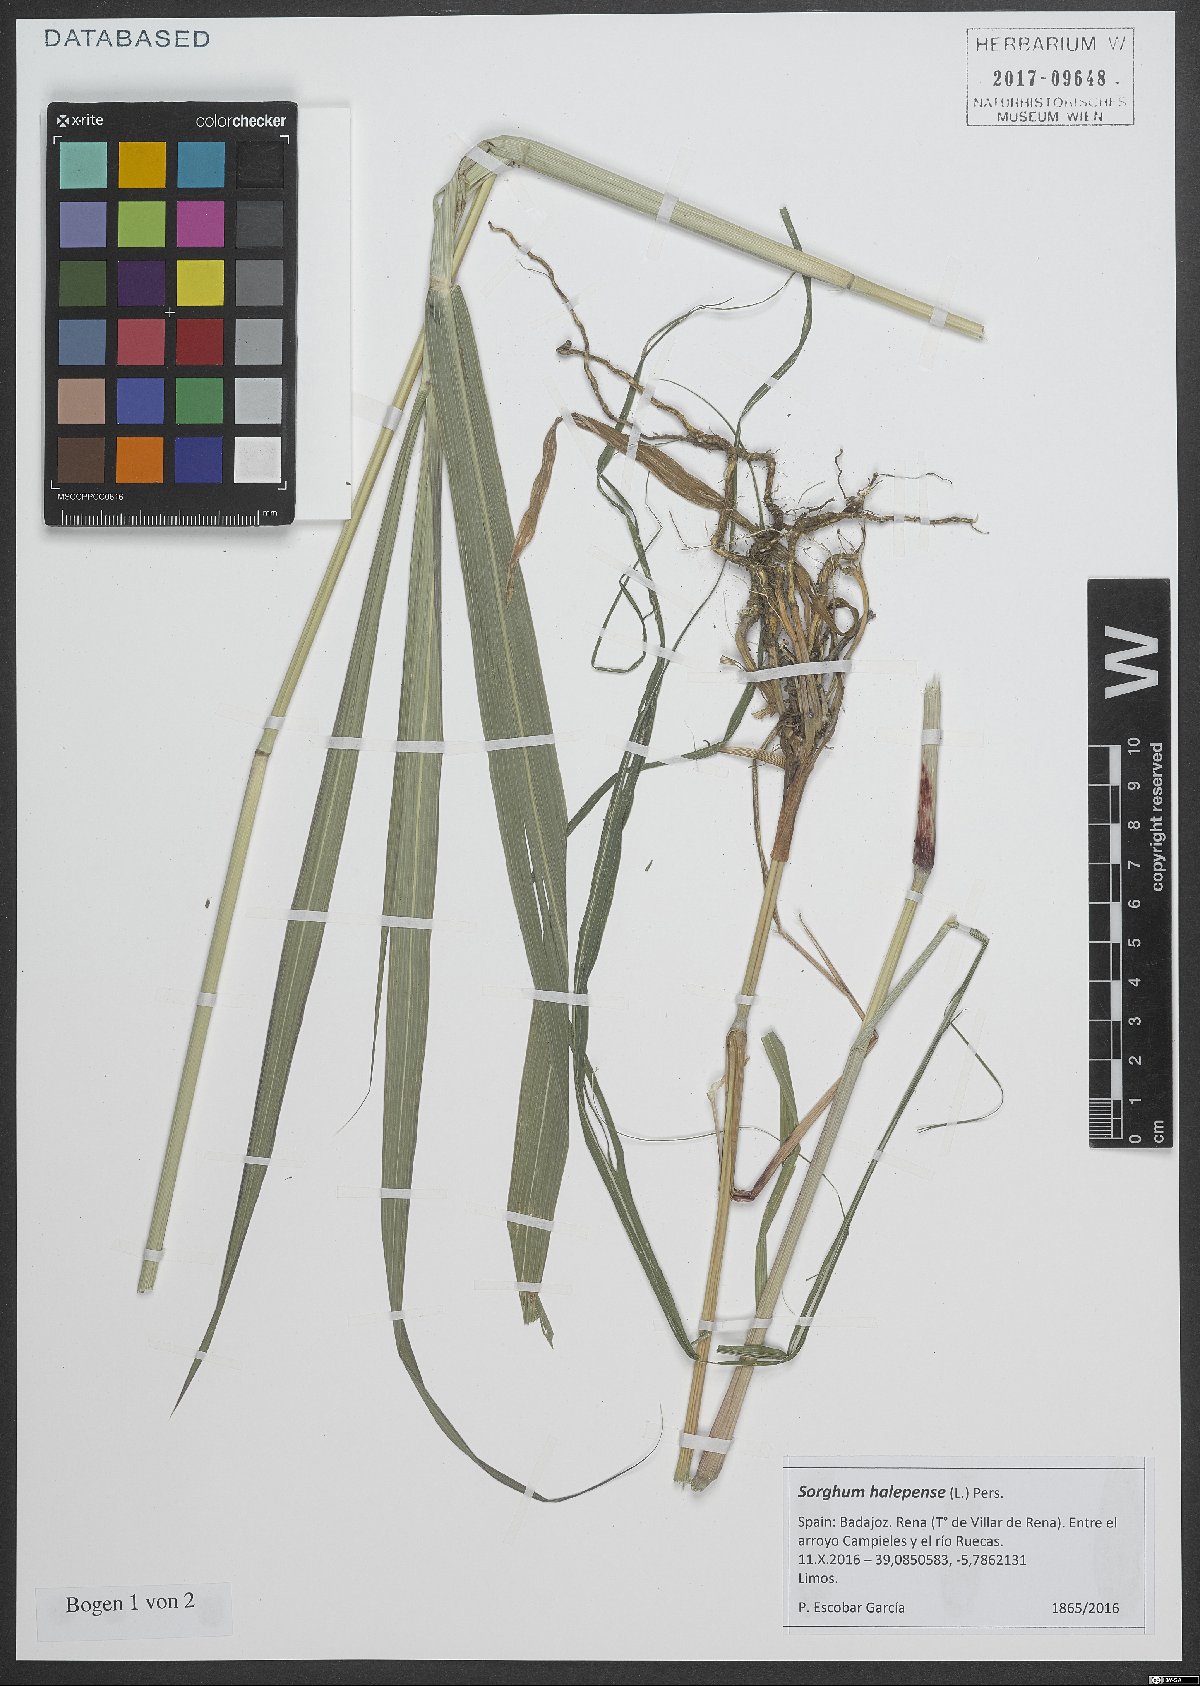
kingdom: Plantae
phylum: Tracheophyta
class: Liliopsida
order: Poales
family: Poaceae
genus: Sorghum
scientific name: Sorghum halepense
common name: Johnson-grass
